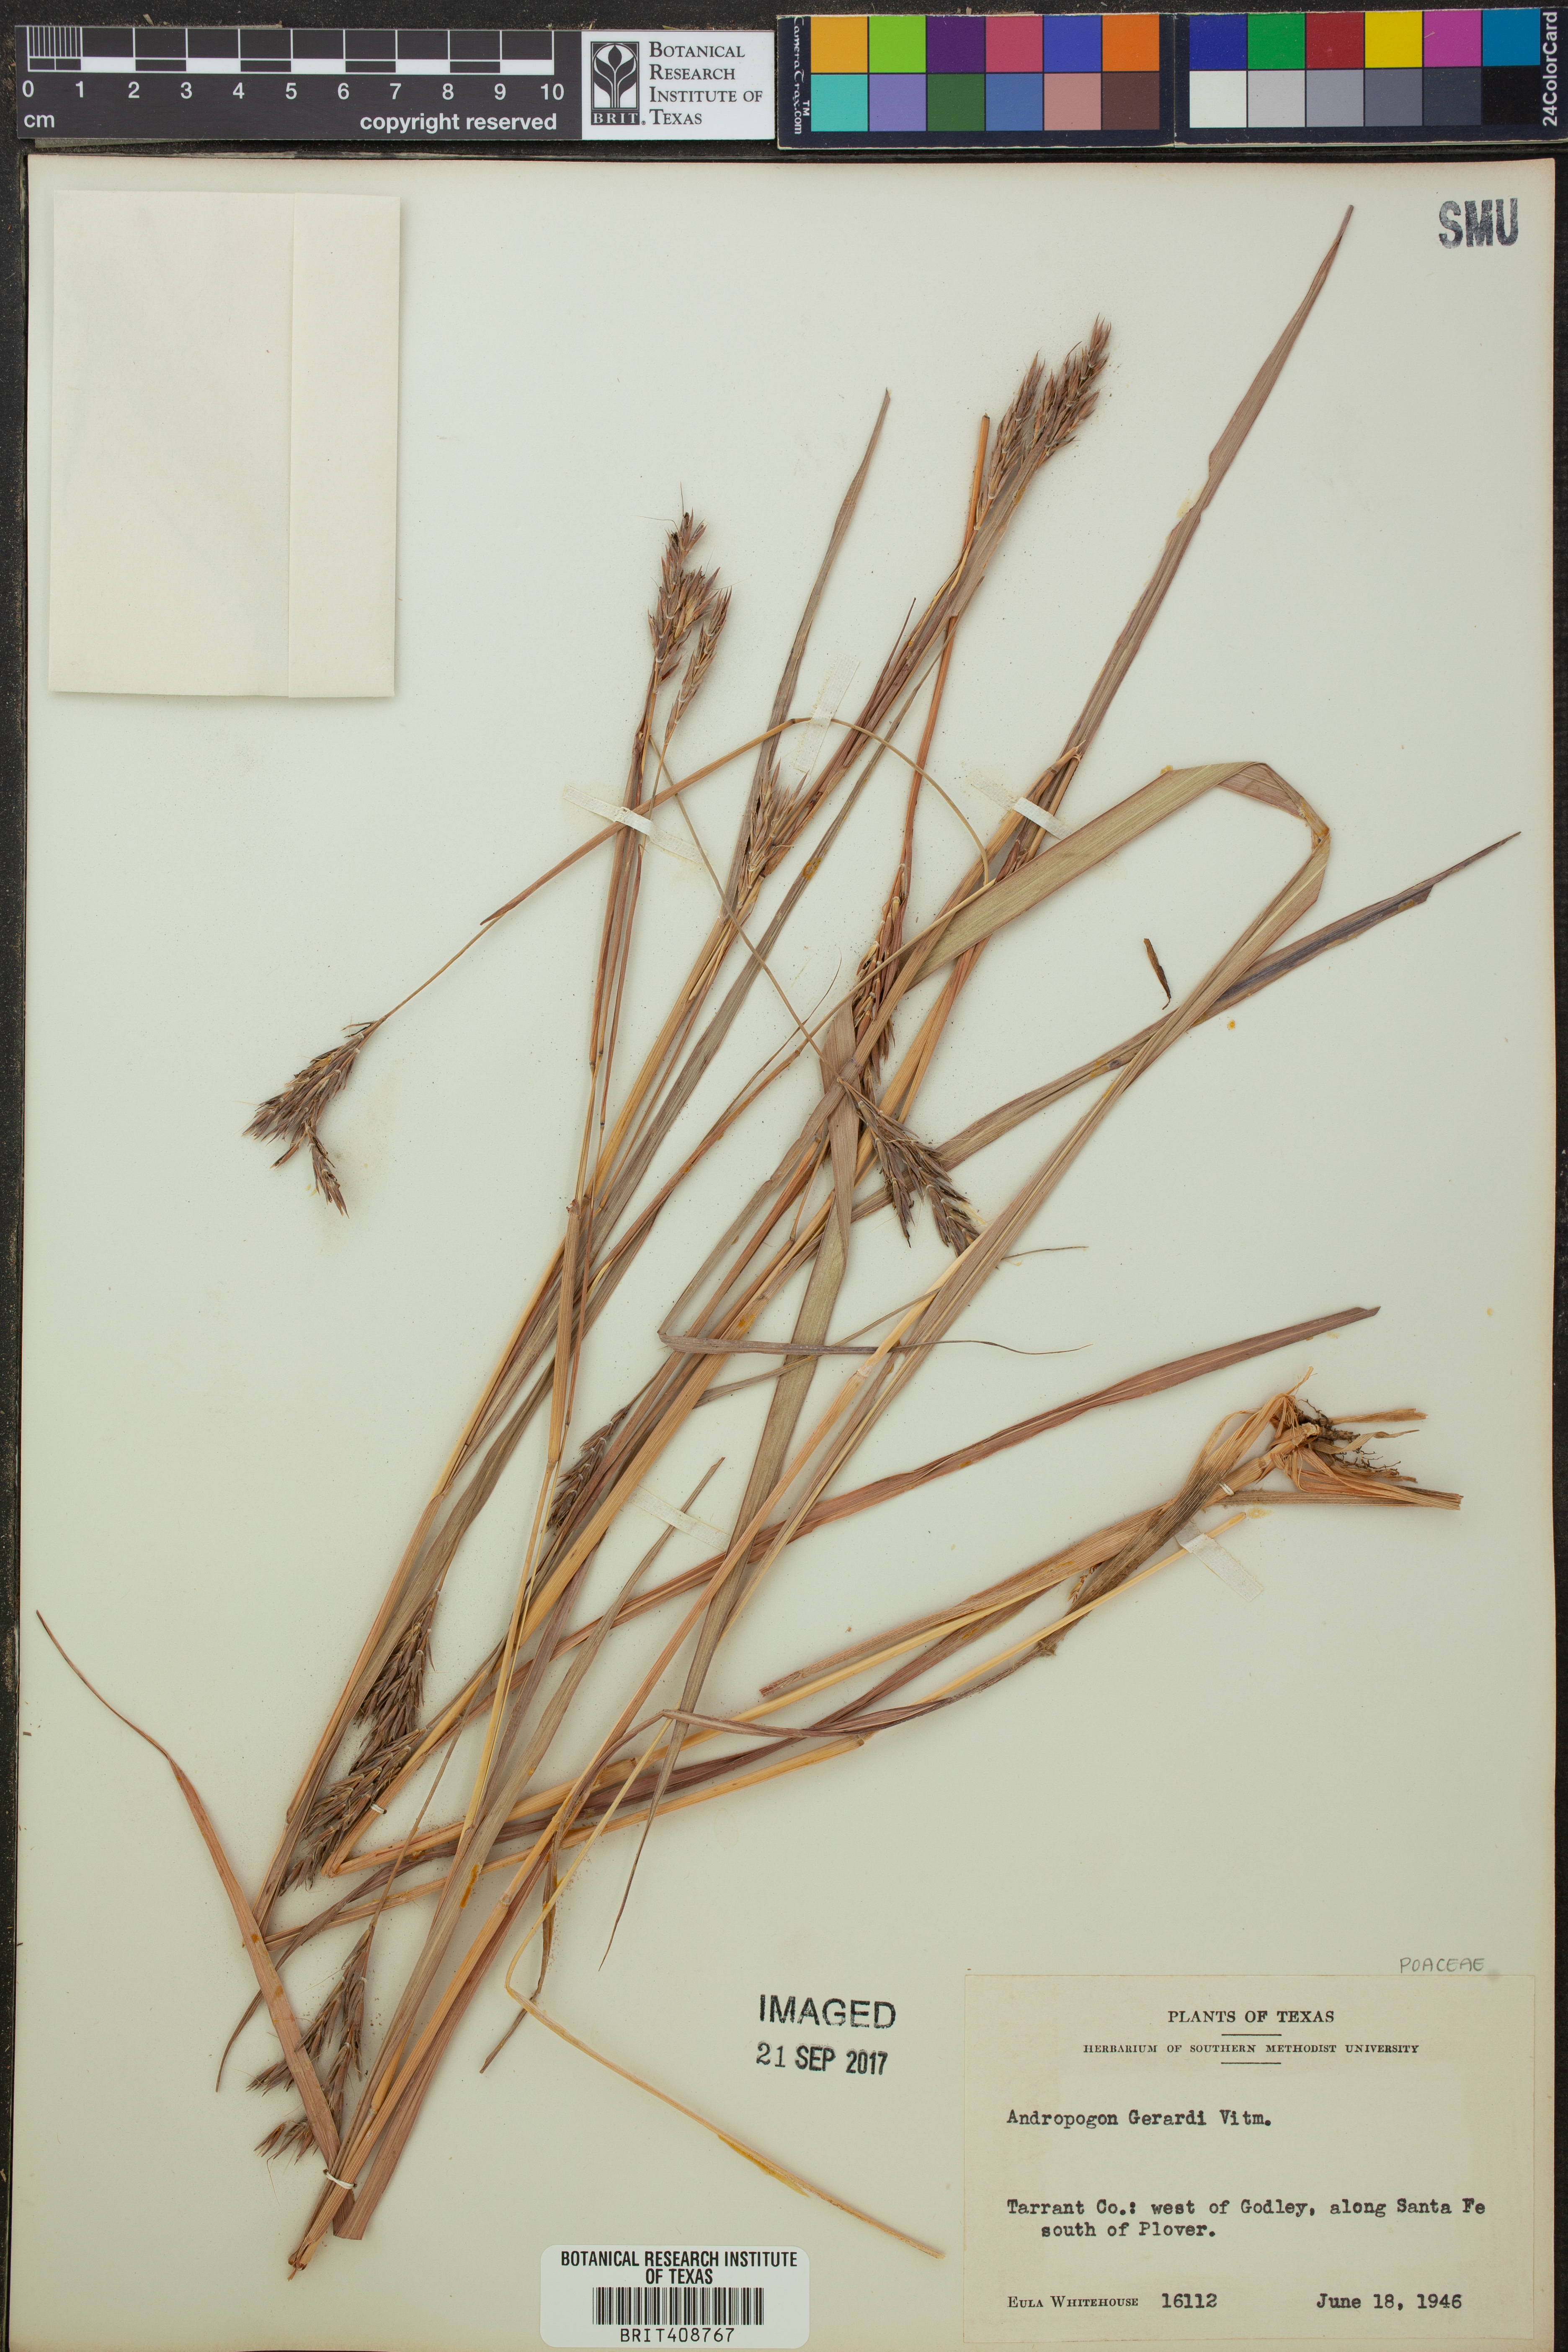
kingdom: Plantae
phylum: Tracheophyta
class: Liliopsida
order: Poales
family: Poaceae
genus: Andropogon
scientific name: Andropogon gerardi
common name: Big bluestem
